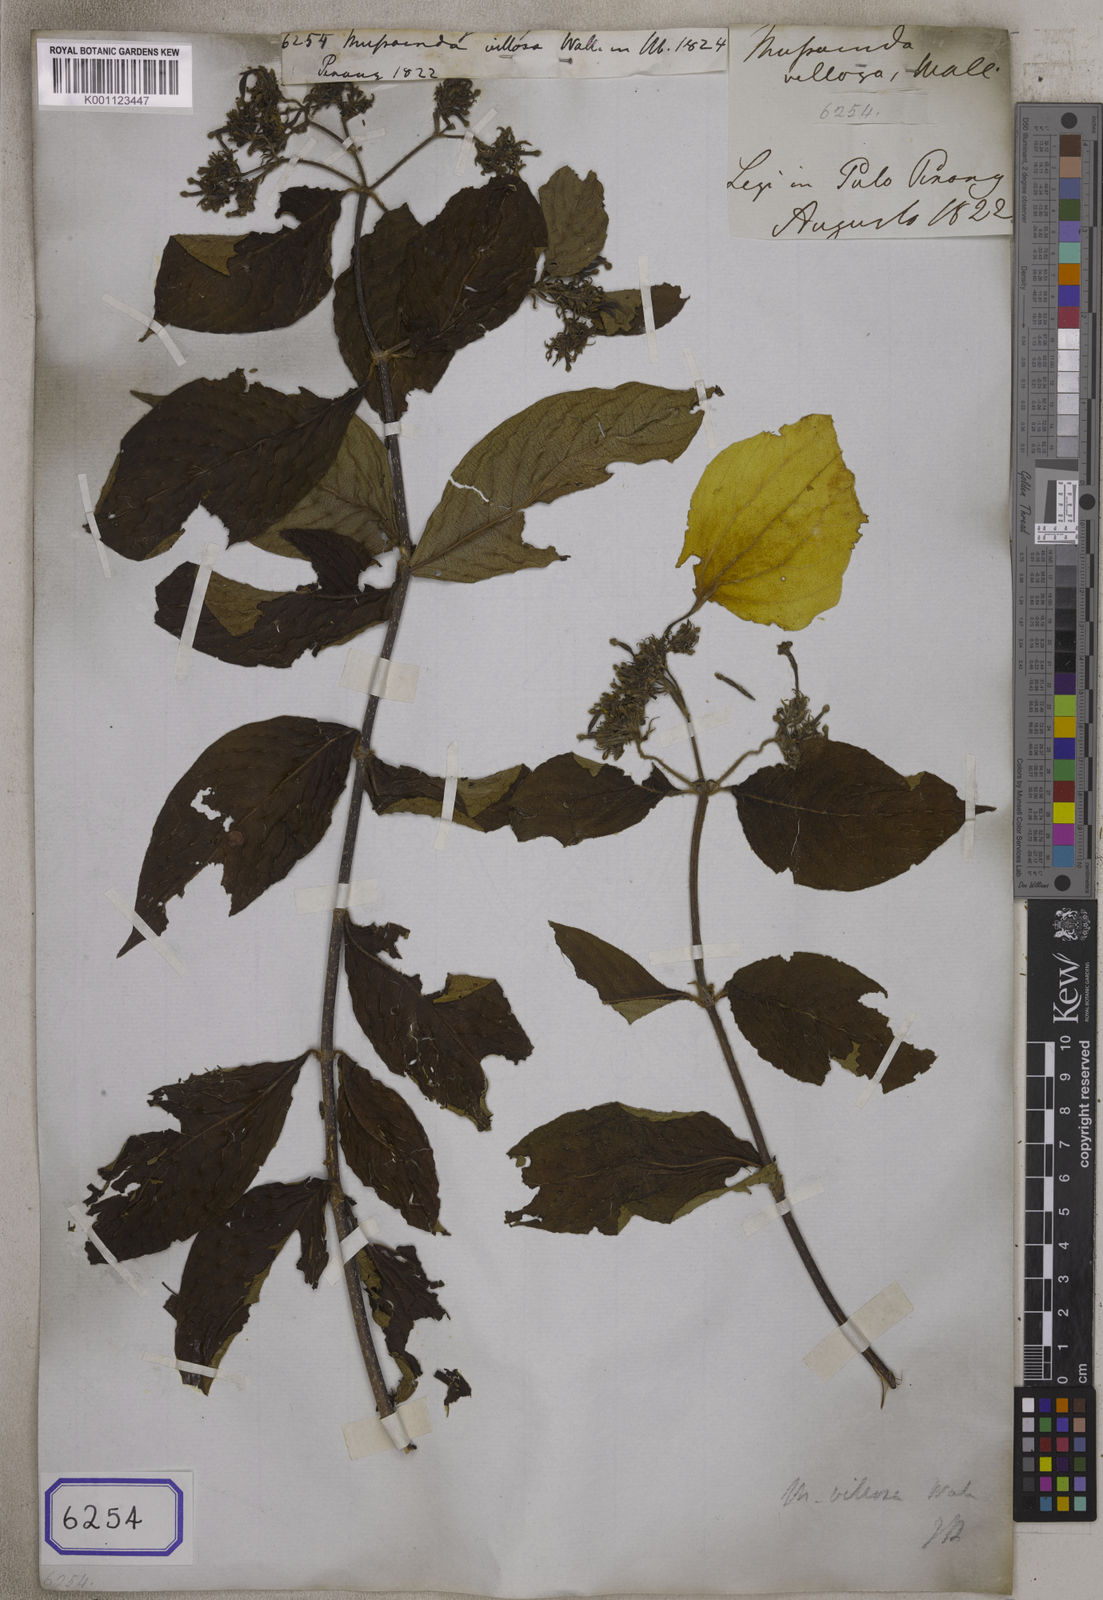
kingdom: Plantae
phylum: Tracheophyta
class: Magnoliopsida
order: Gentianales
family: Rubiaceae
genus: Mussaenda
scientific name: Mussaenda
